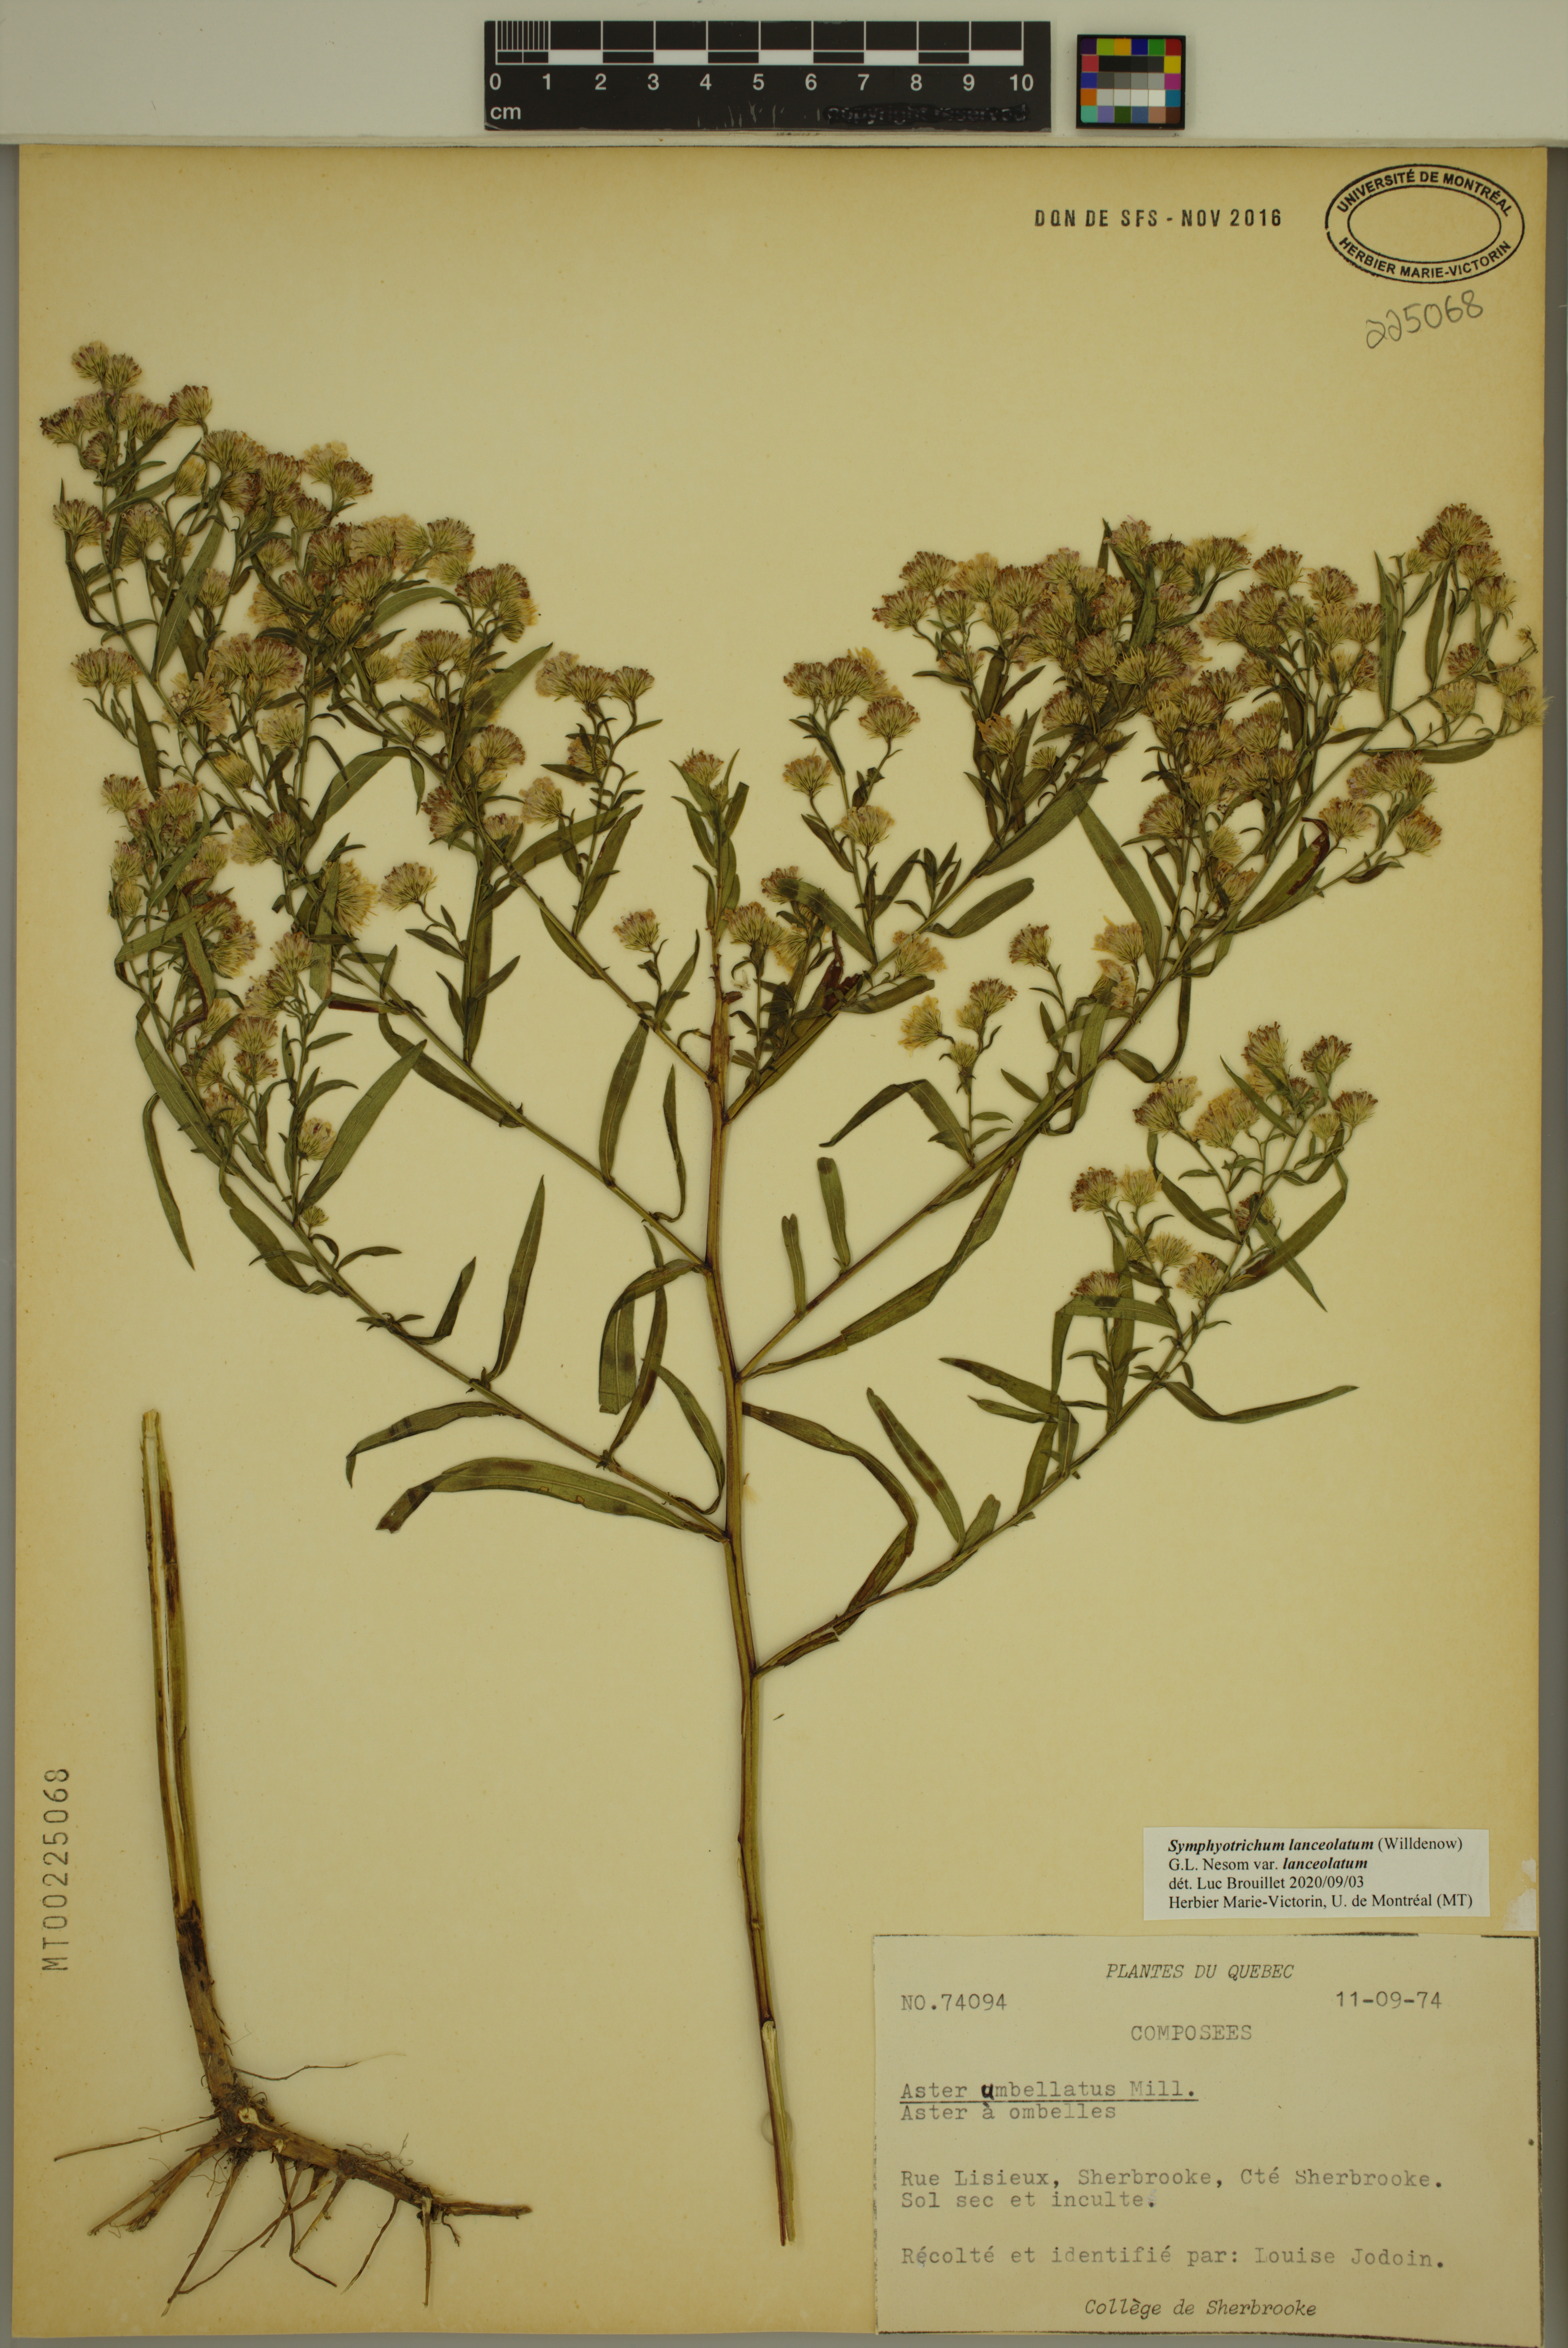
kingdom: Plantae
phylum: Tracheophyta
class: Magnoliopsida
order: Asterales
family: Asteraceae
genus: Symphyotrichum
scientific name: Symphyotrichum lanceolatum
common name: Panicled aster
